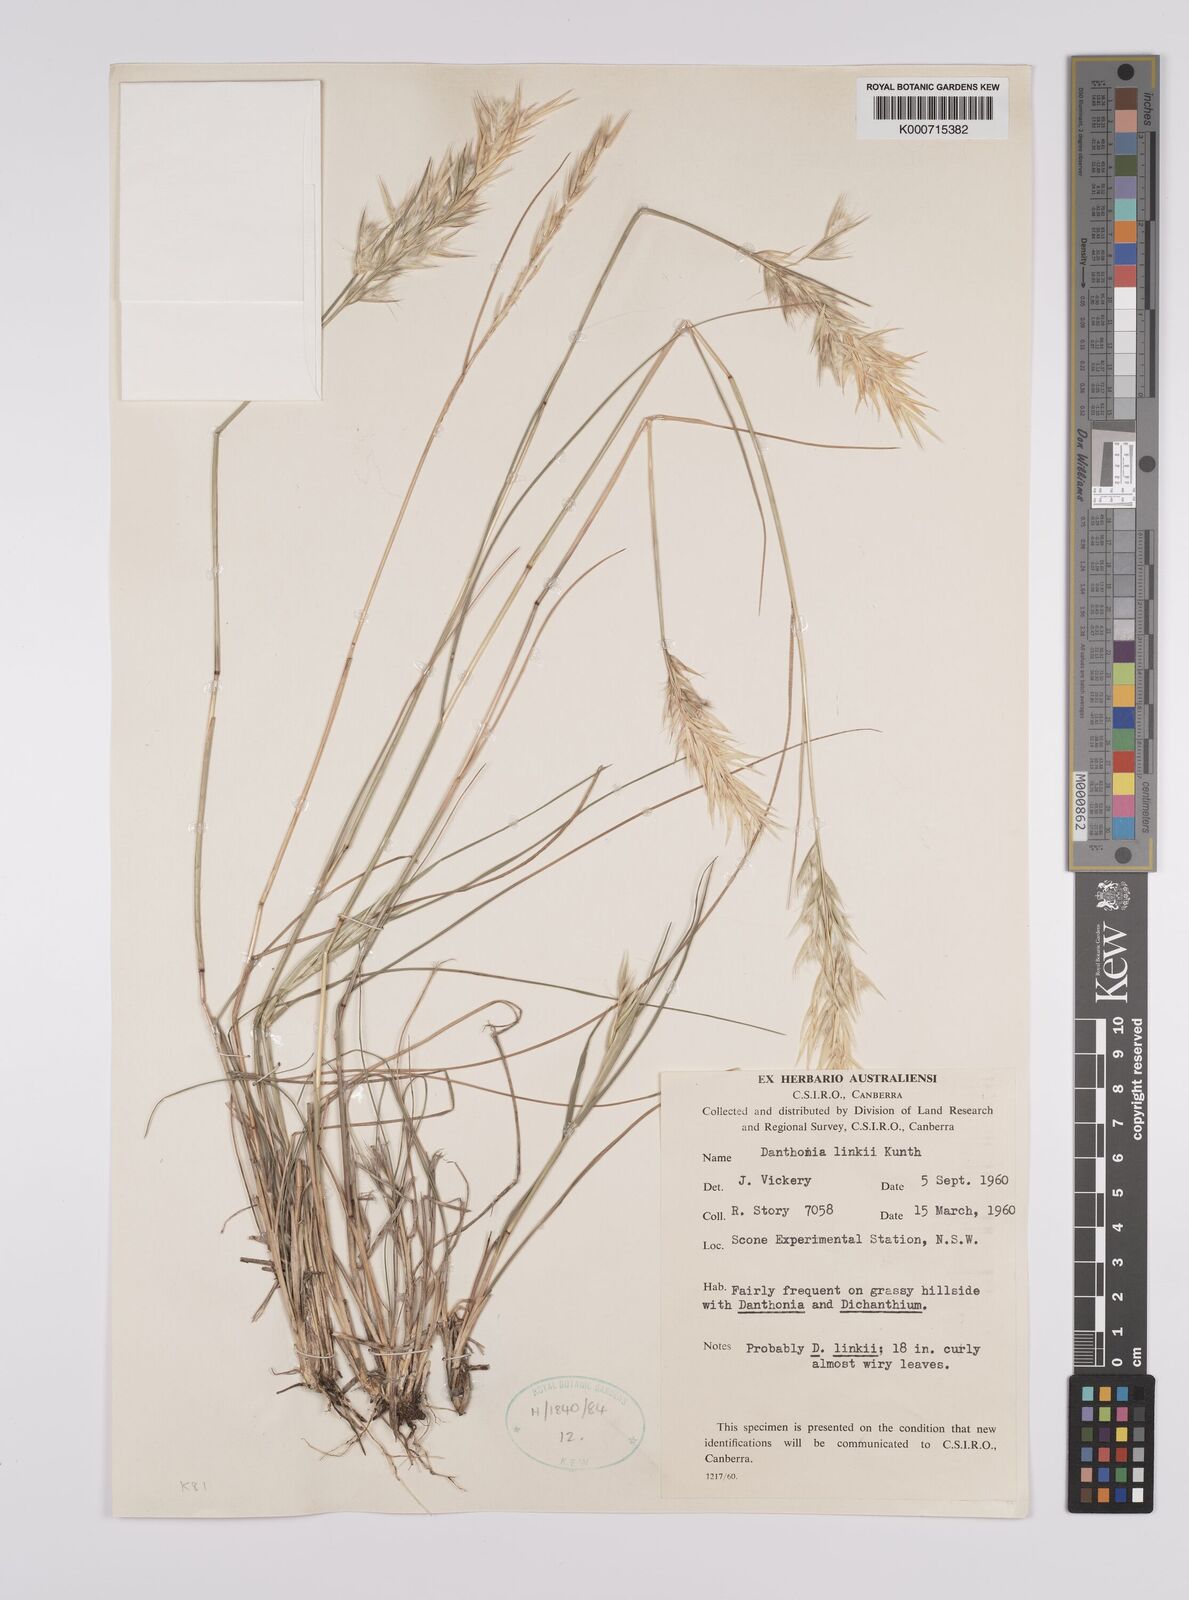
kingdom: Plantae
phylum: Tracheophyta
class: Liliopsida
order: Poales
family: Poaceae
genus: Rytidosperma
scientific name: Rytidosperma bipartitum
